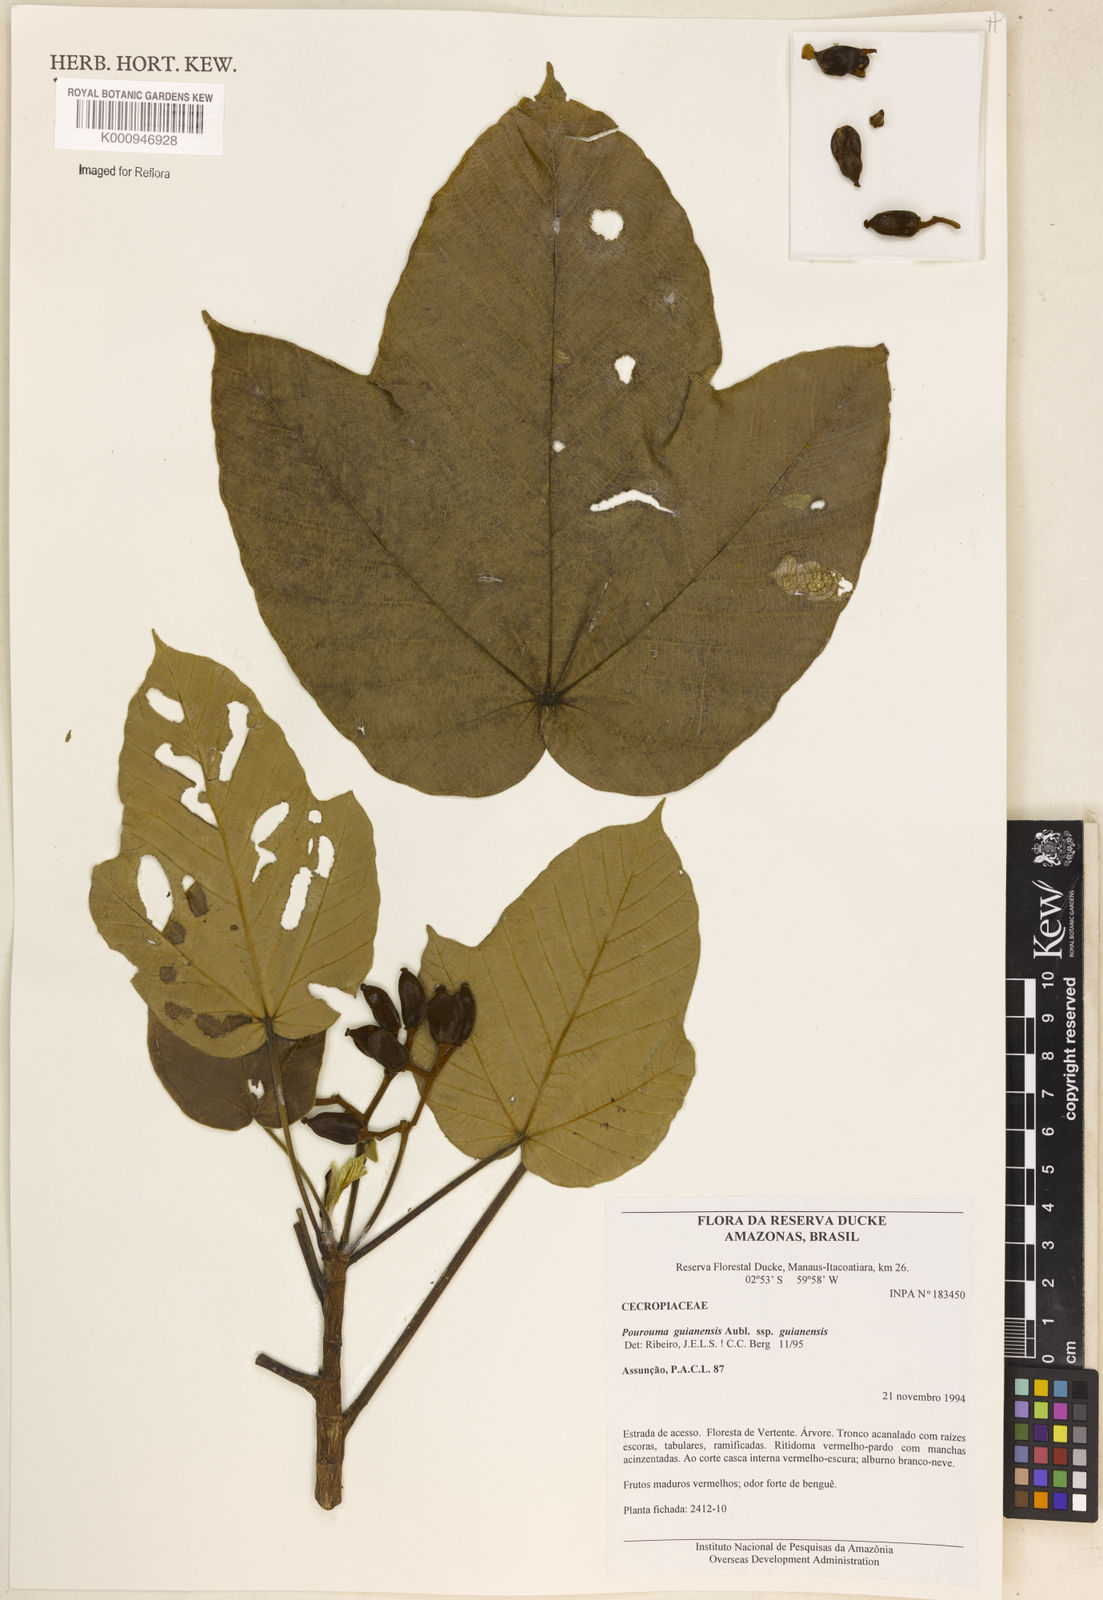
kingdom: Plantae
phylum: Tracheophyta
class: Magnoliopsida
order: Rosales
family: Urticaceae
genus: Pourouma
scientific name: Pourouma guianensis
